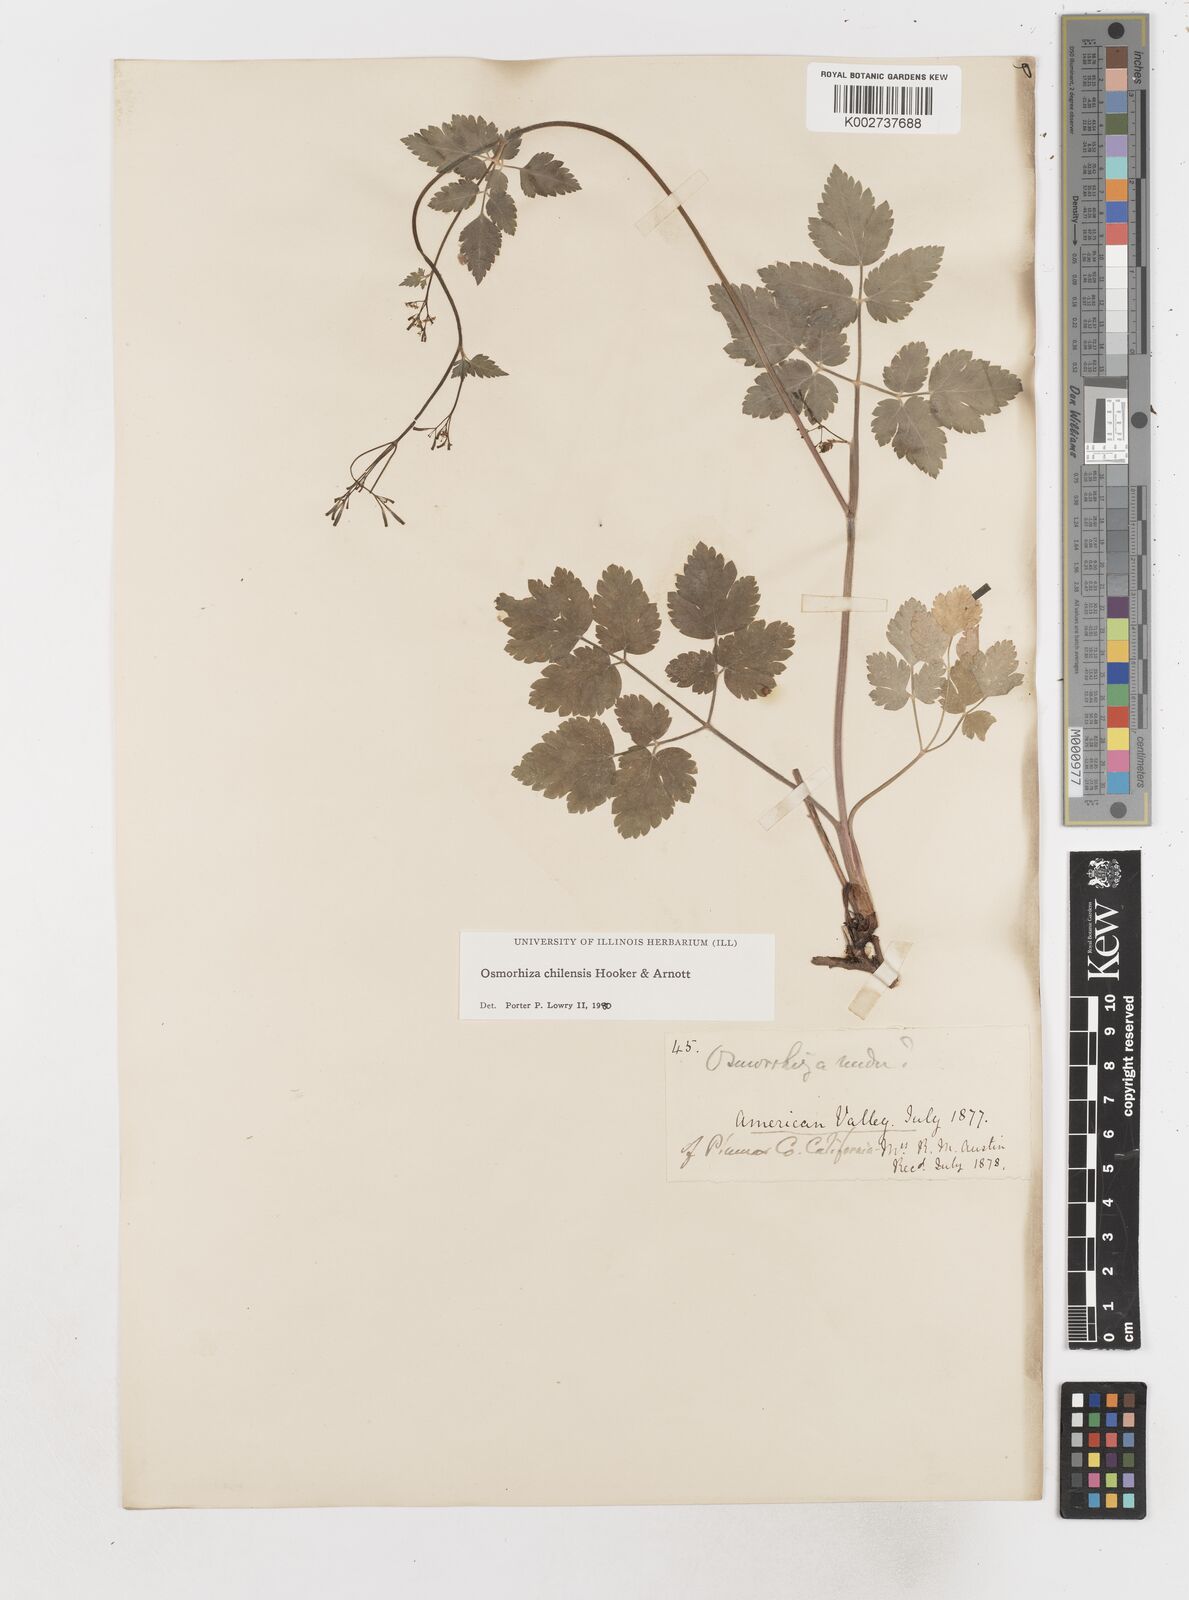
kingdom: Plantae
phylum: Tracheophyta
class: Magnoliopsida
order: Apiales
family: Apiaceae
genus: Osmorhiza
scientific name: Osmorhiza berteroi
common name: Mountain sweet cicely
